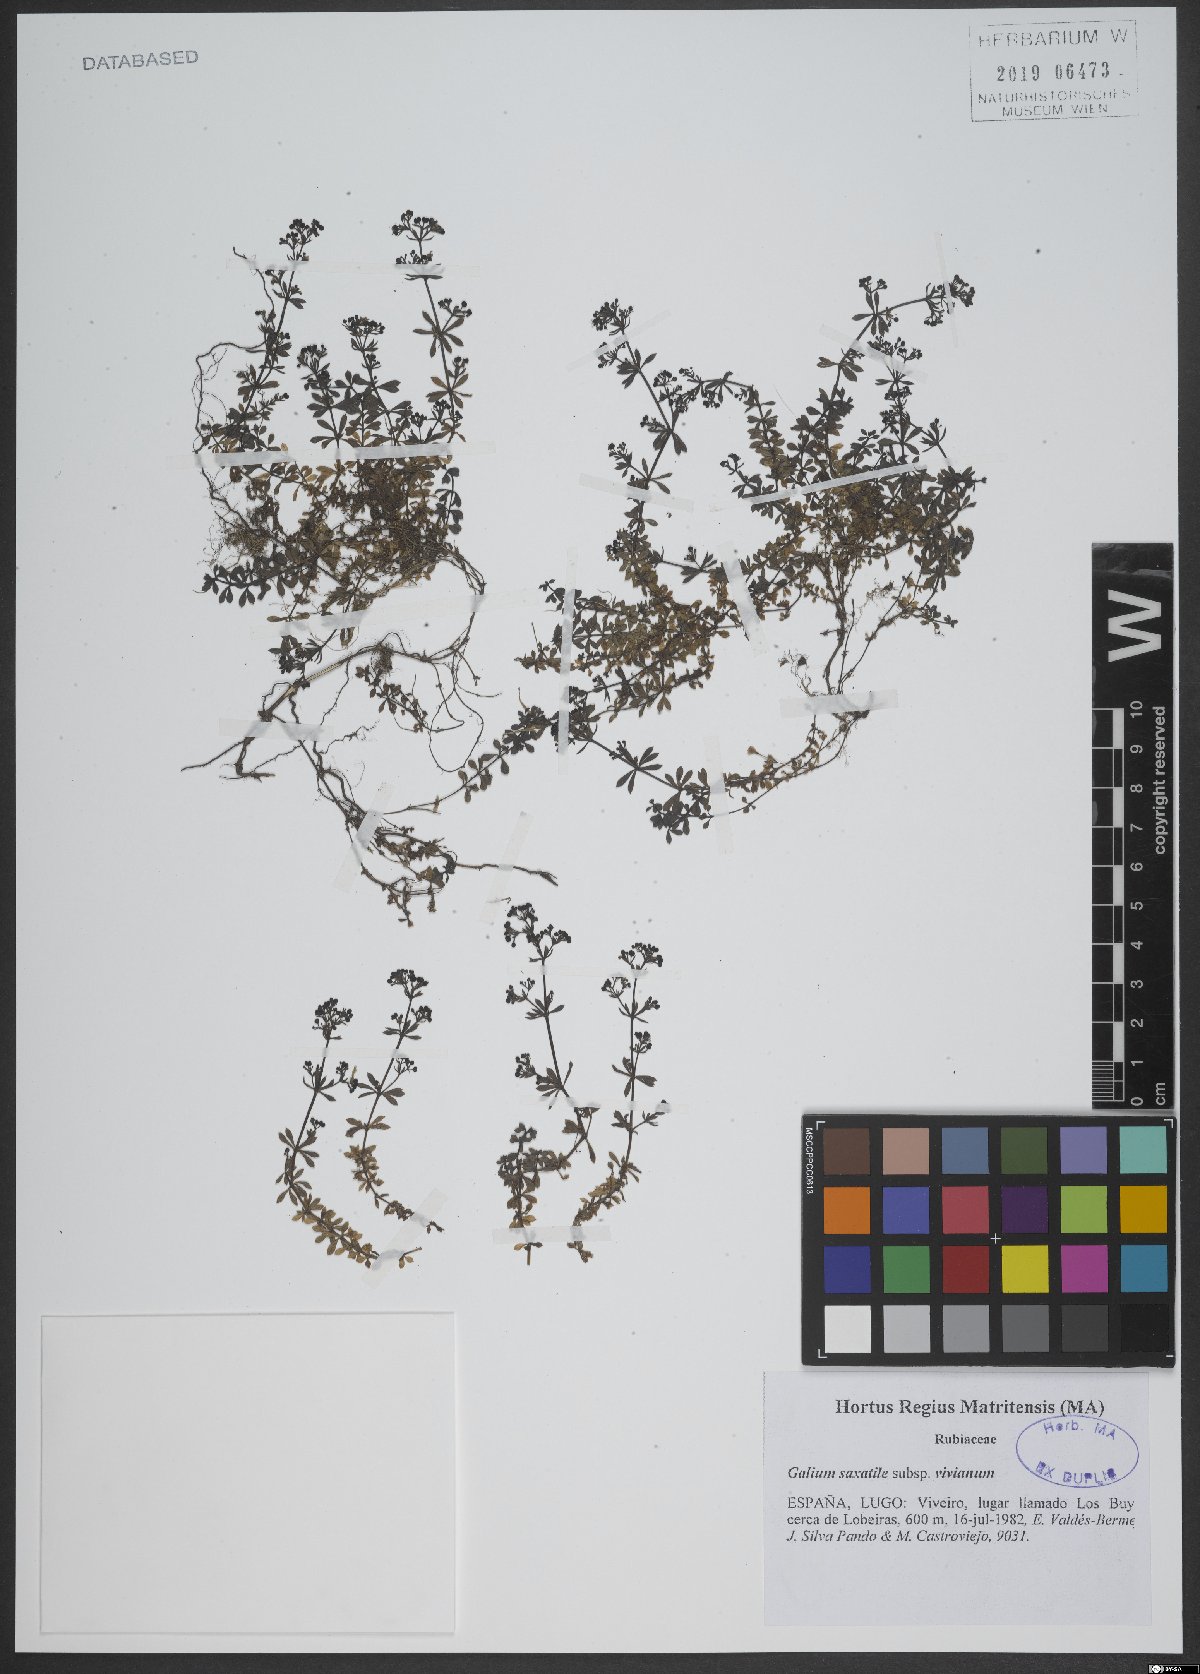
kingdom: Plantae
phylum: Tracheophyta
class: Magnoliopsida
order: Gentianales
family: Rubiaceae
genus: Galium
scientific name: Galium saxatile
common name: Heath bedstraw
